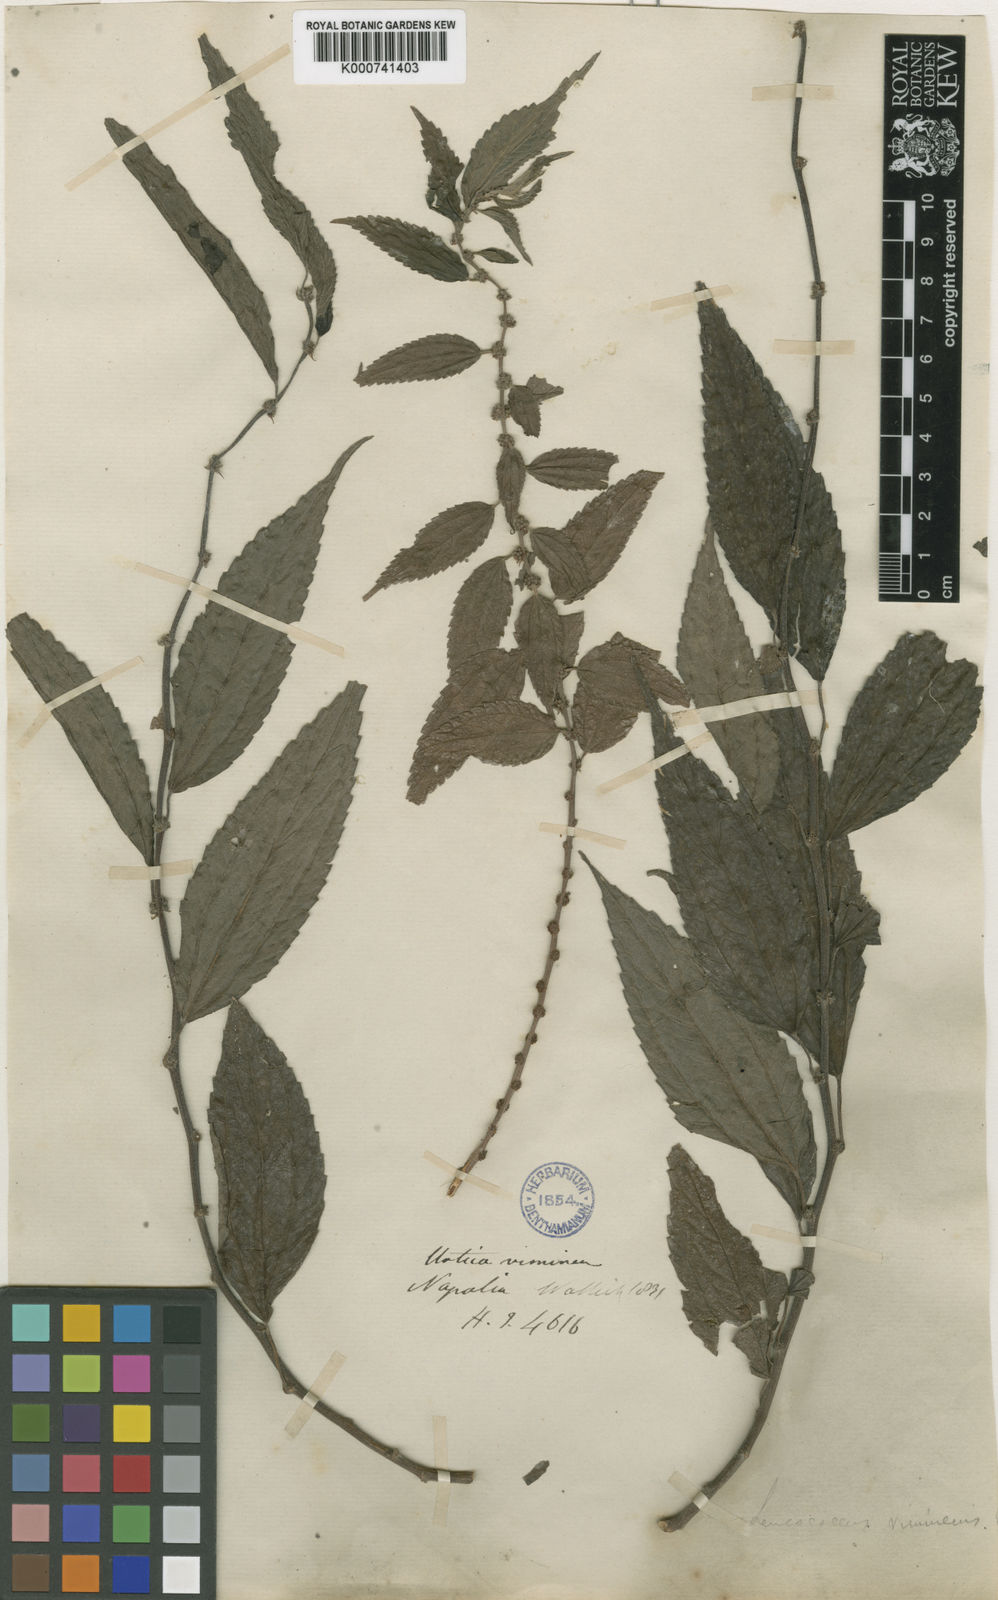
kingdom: Plantae
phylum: Tracheophyta
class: Magnoliopsida
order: Rosales
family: Urticaceae
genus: Pouzolzia
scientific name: Pouzolzia sanguinea
